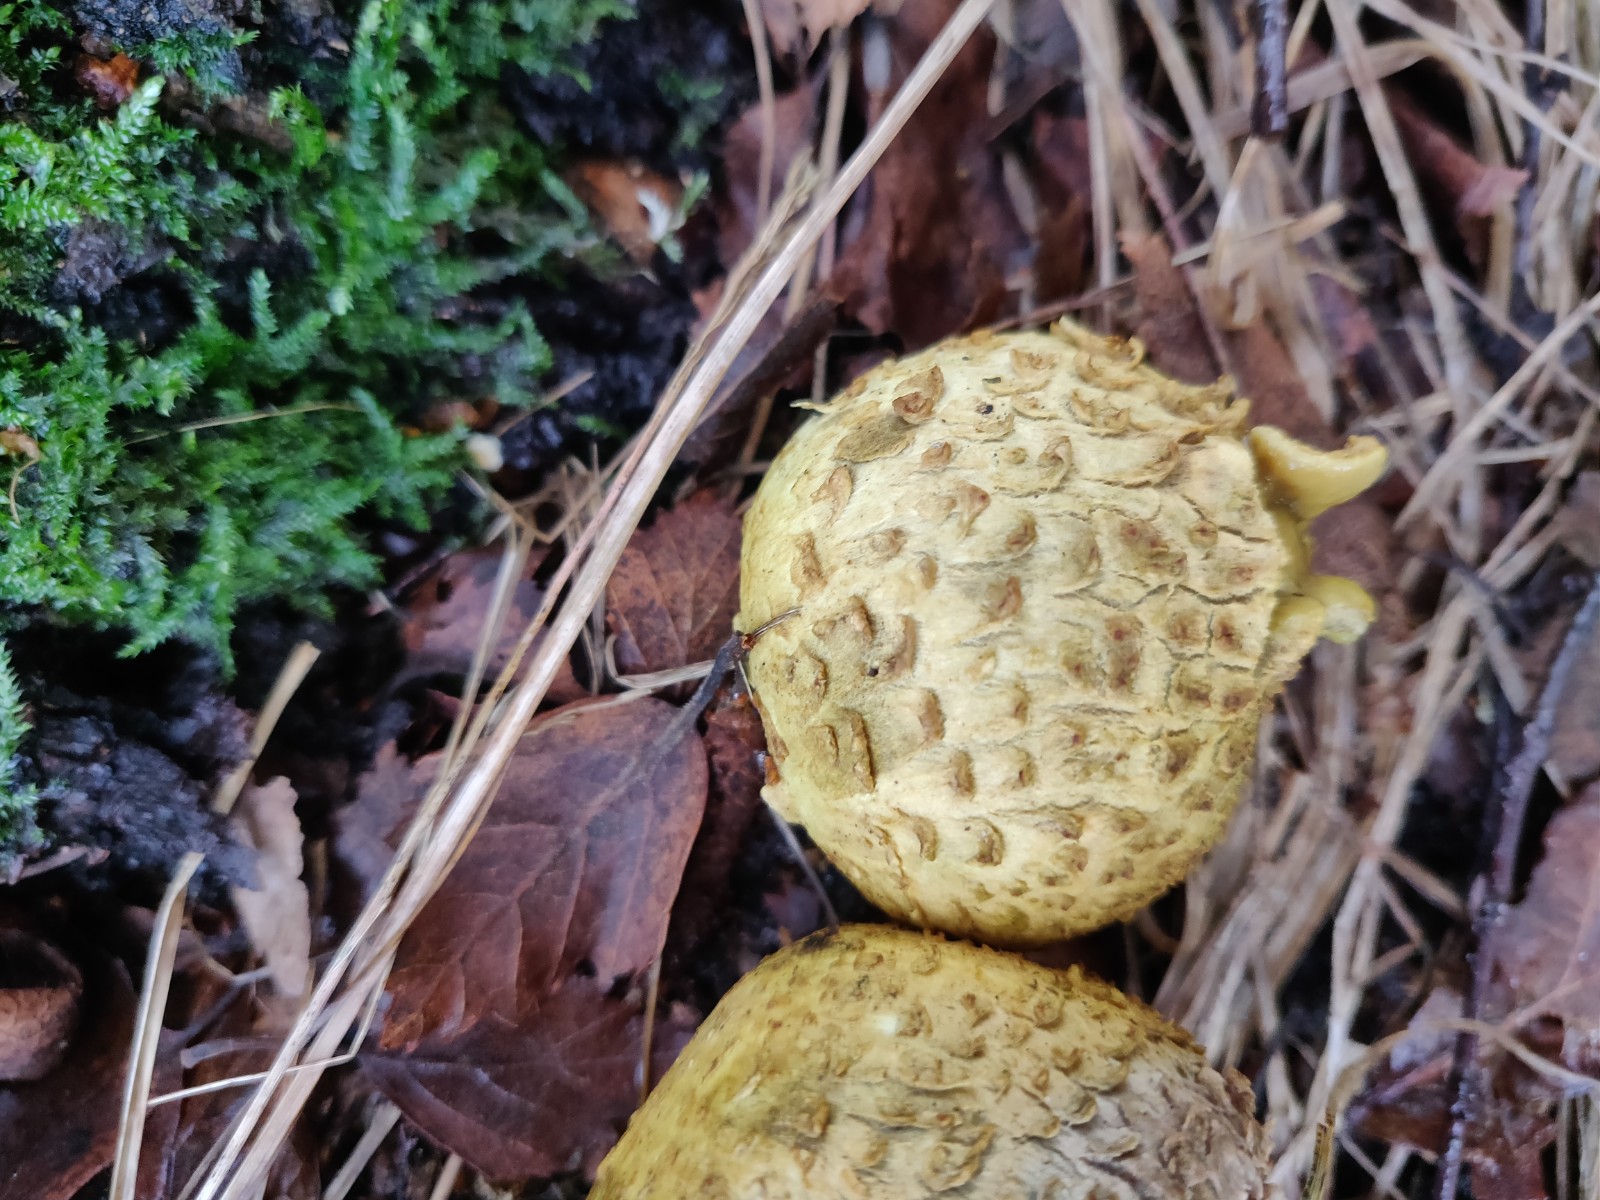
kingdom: Fungi
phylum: Basidiomycota
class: Agaricomycetes
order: Boletales
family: Sclerodermataceae
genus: Scleroderma
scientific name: Scleroderma citrinum
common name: almindelig bruskbold
